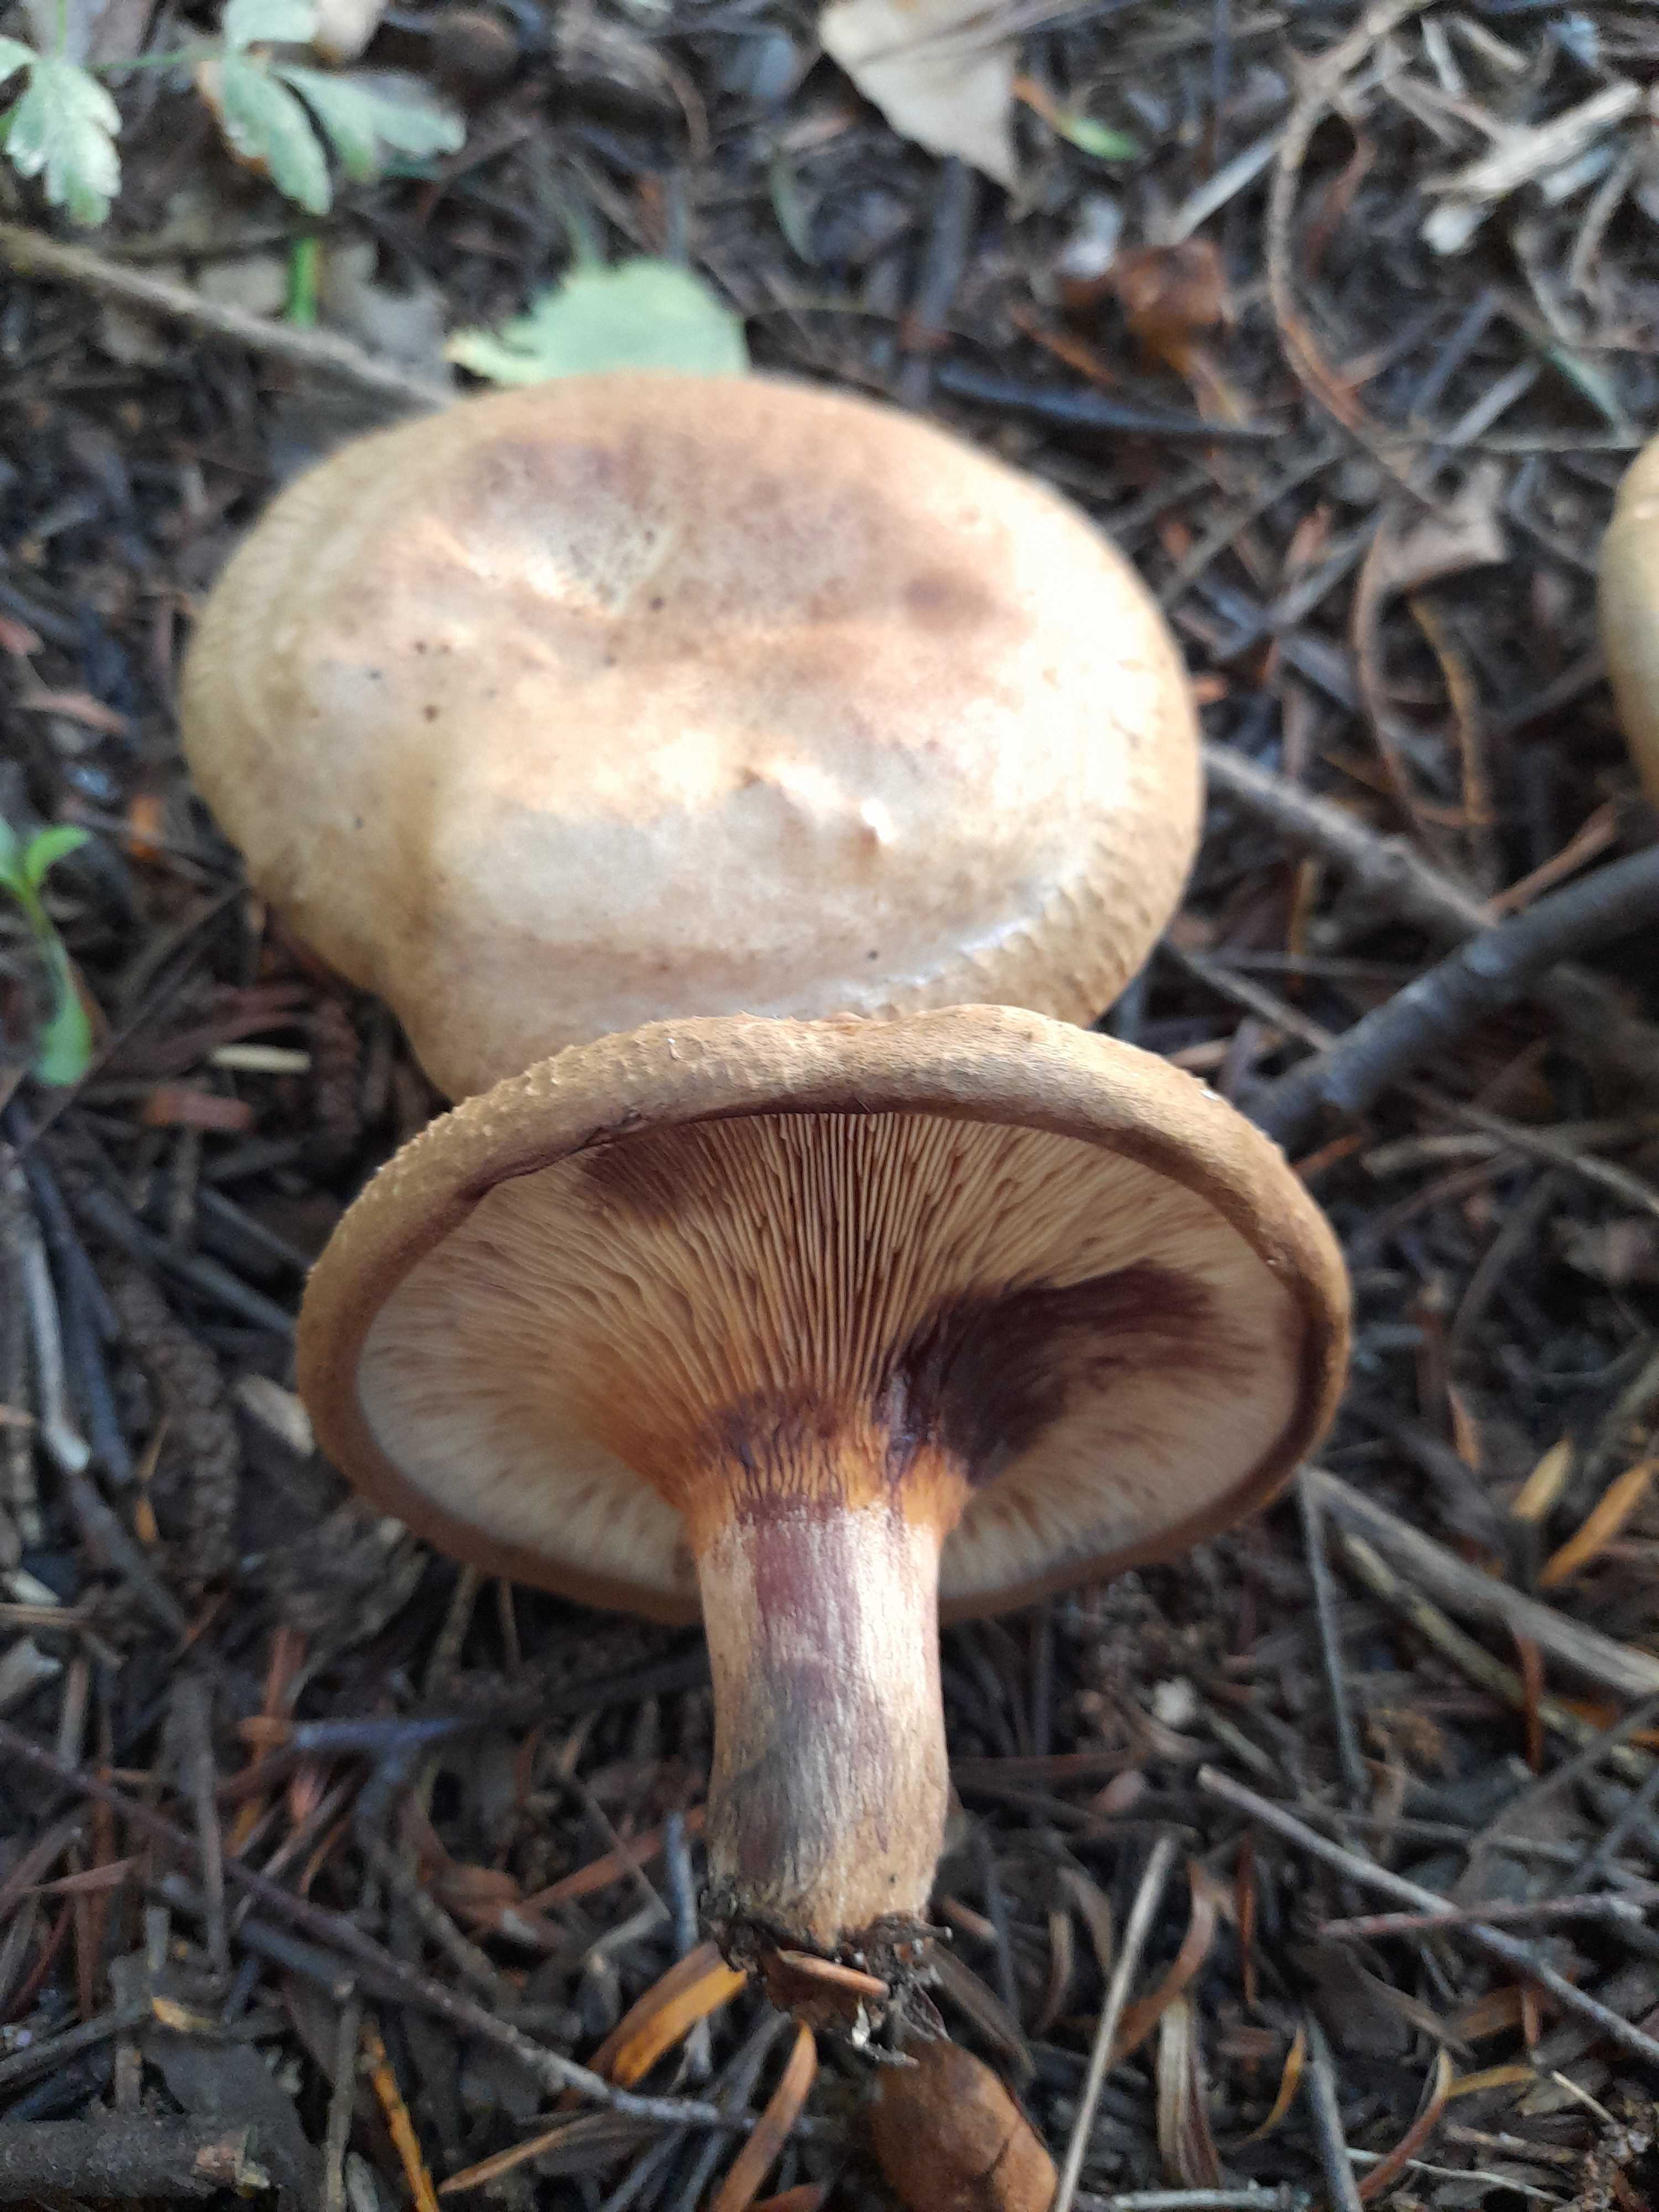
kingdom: Fungi
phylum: Basidiomycota
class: Agaricomycetes
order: Boletales
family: Paxillaceae
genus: Paxillus
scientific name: Paxillus involutus
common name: almindelig netbladhat
